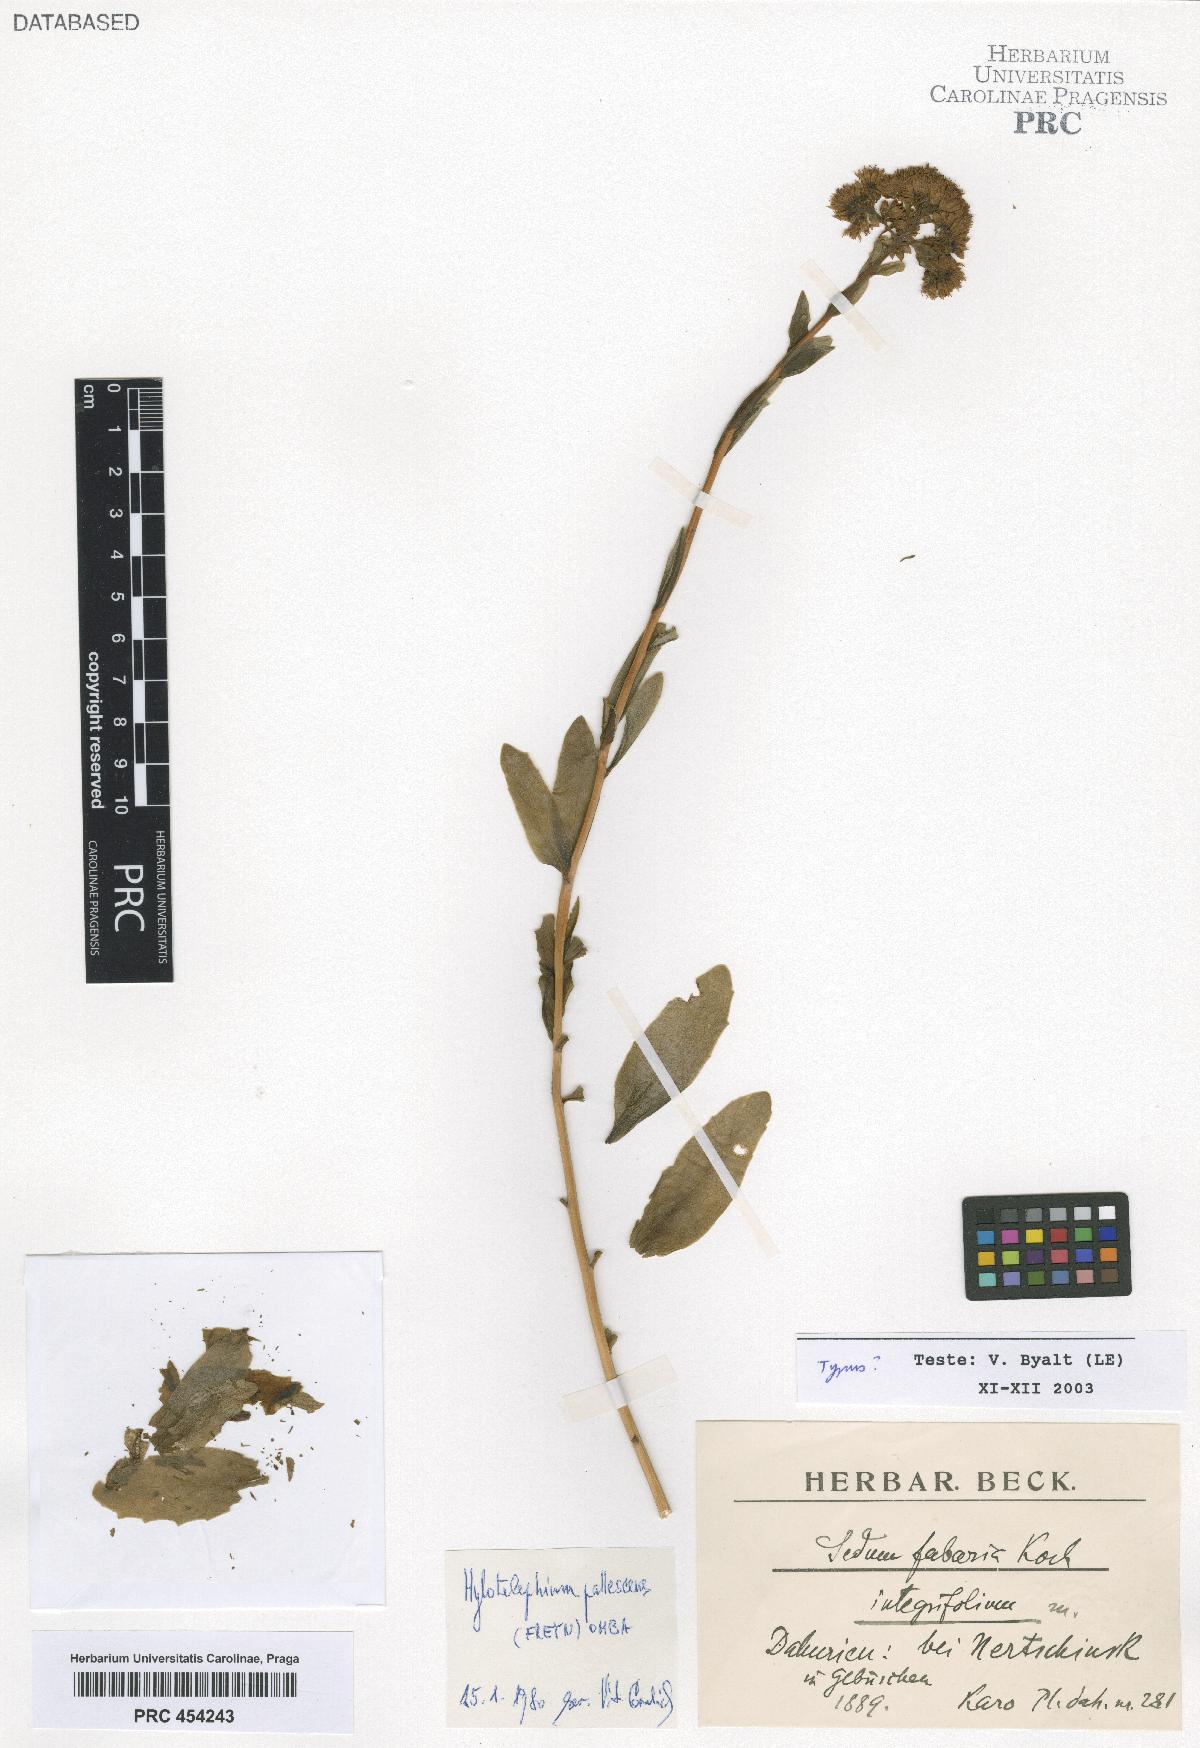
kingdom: Plantae
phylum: Tracheophyta
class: Magnoliopsida
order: Saxifragales
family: Crassulaceae
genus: Hylotelephium
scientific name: Hylotelephium pallescens
